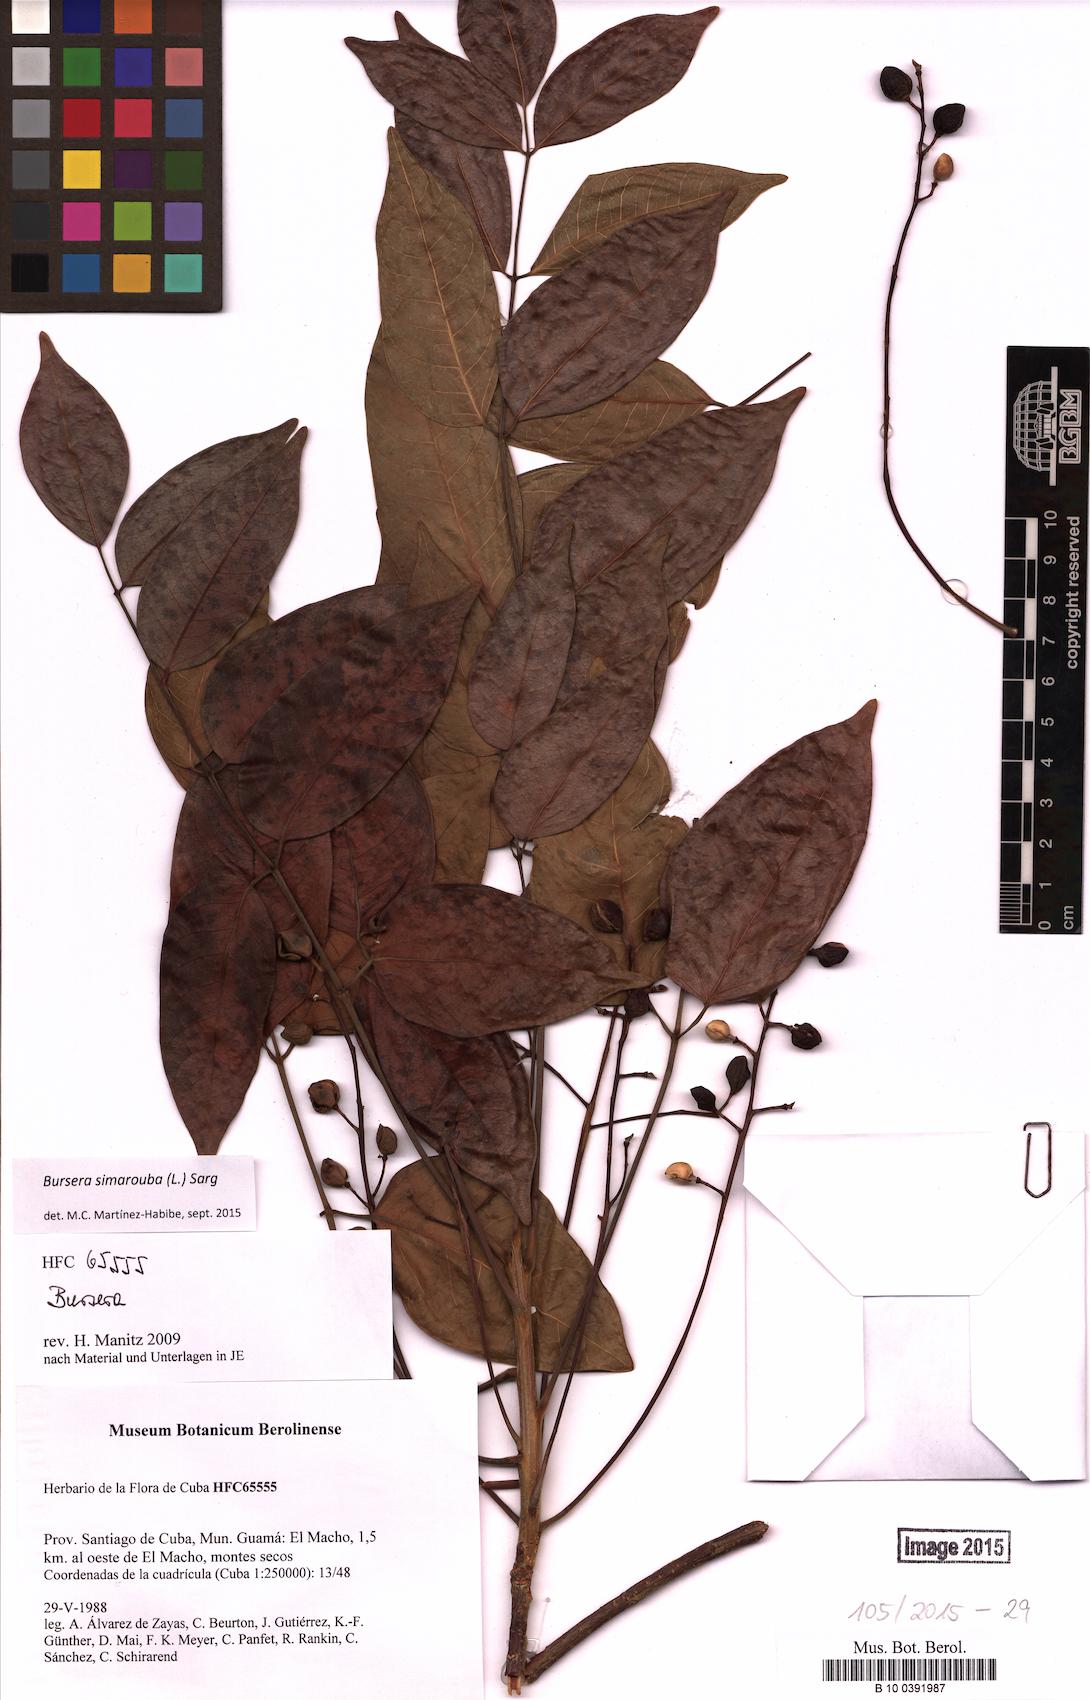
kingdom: Plantae
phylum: Tracheophyta
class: Magnoliopsida
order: Sapindales
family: Burseraceae
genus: Bursera
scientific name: Bursera simaruba
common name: Turpentine tree
